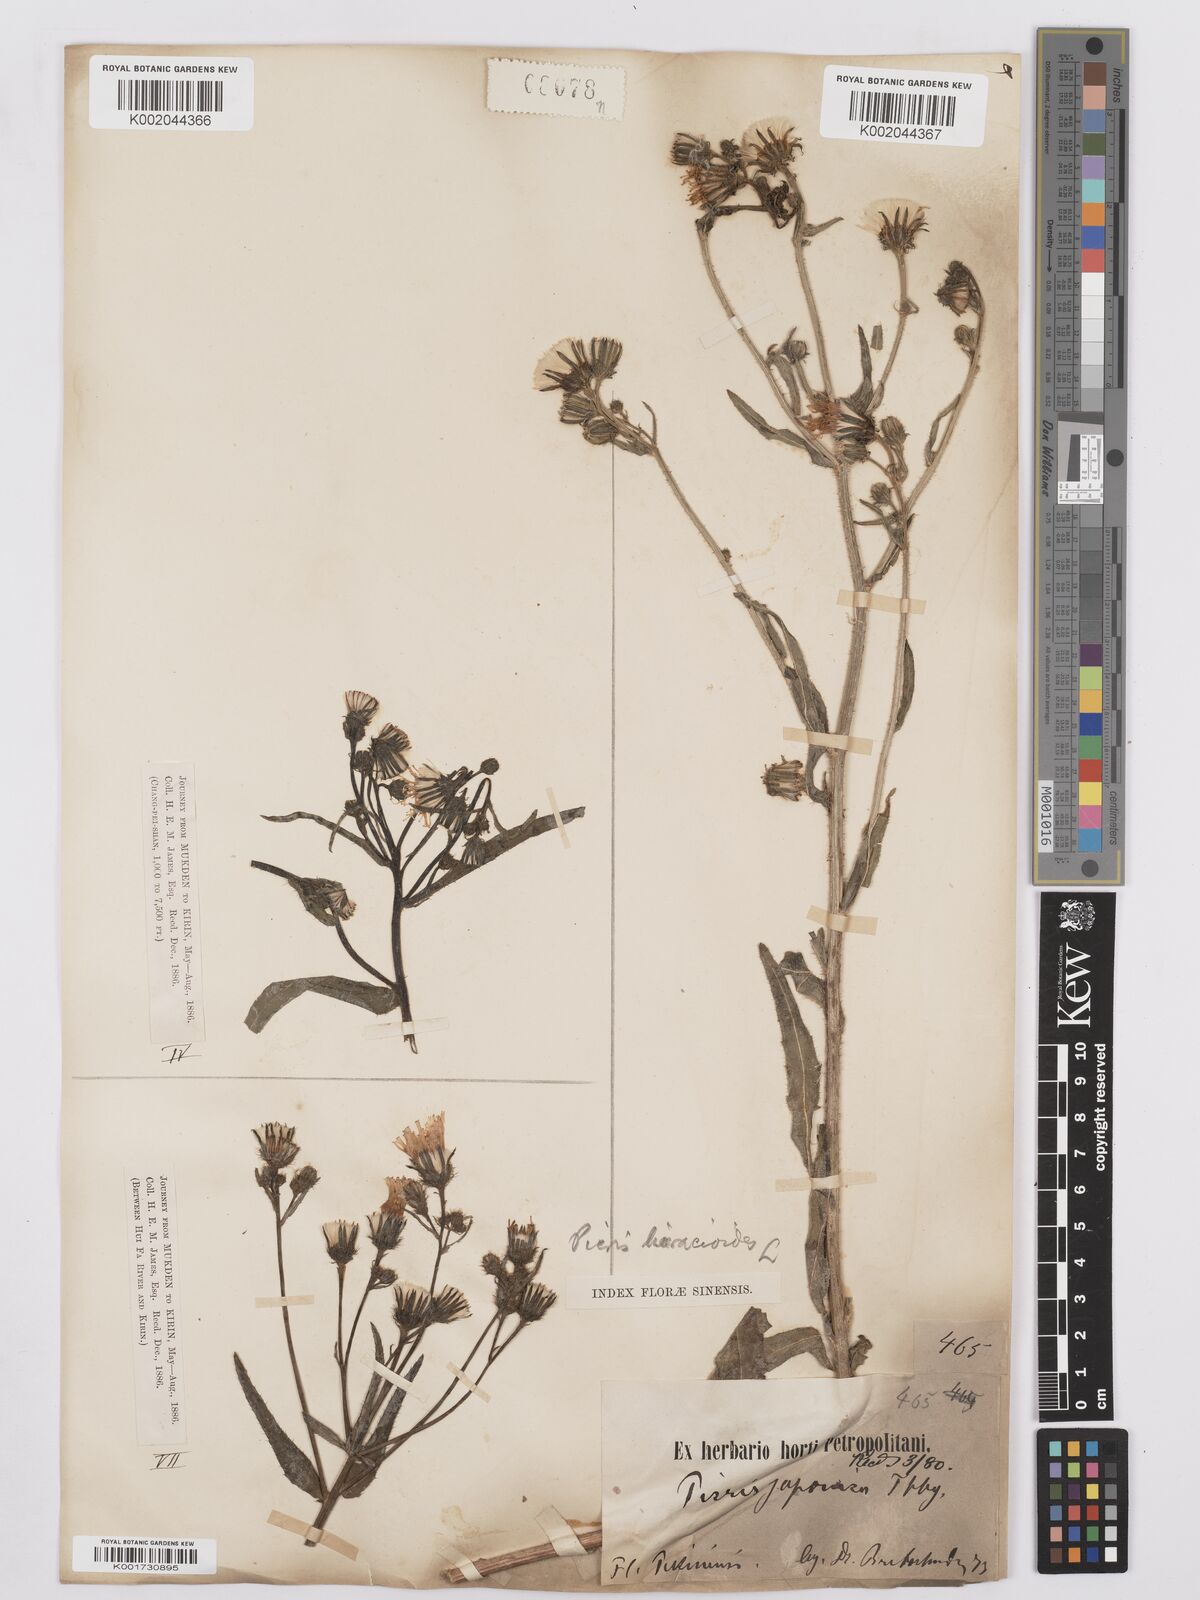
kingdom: Plantae
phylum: Tracheophyta
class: Magnoliopsida
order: Asterales
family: Asteraceae
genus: Picris
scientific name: Picris hieracioides
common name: Hawkweed oxtongue
